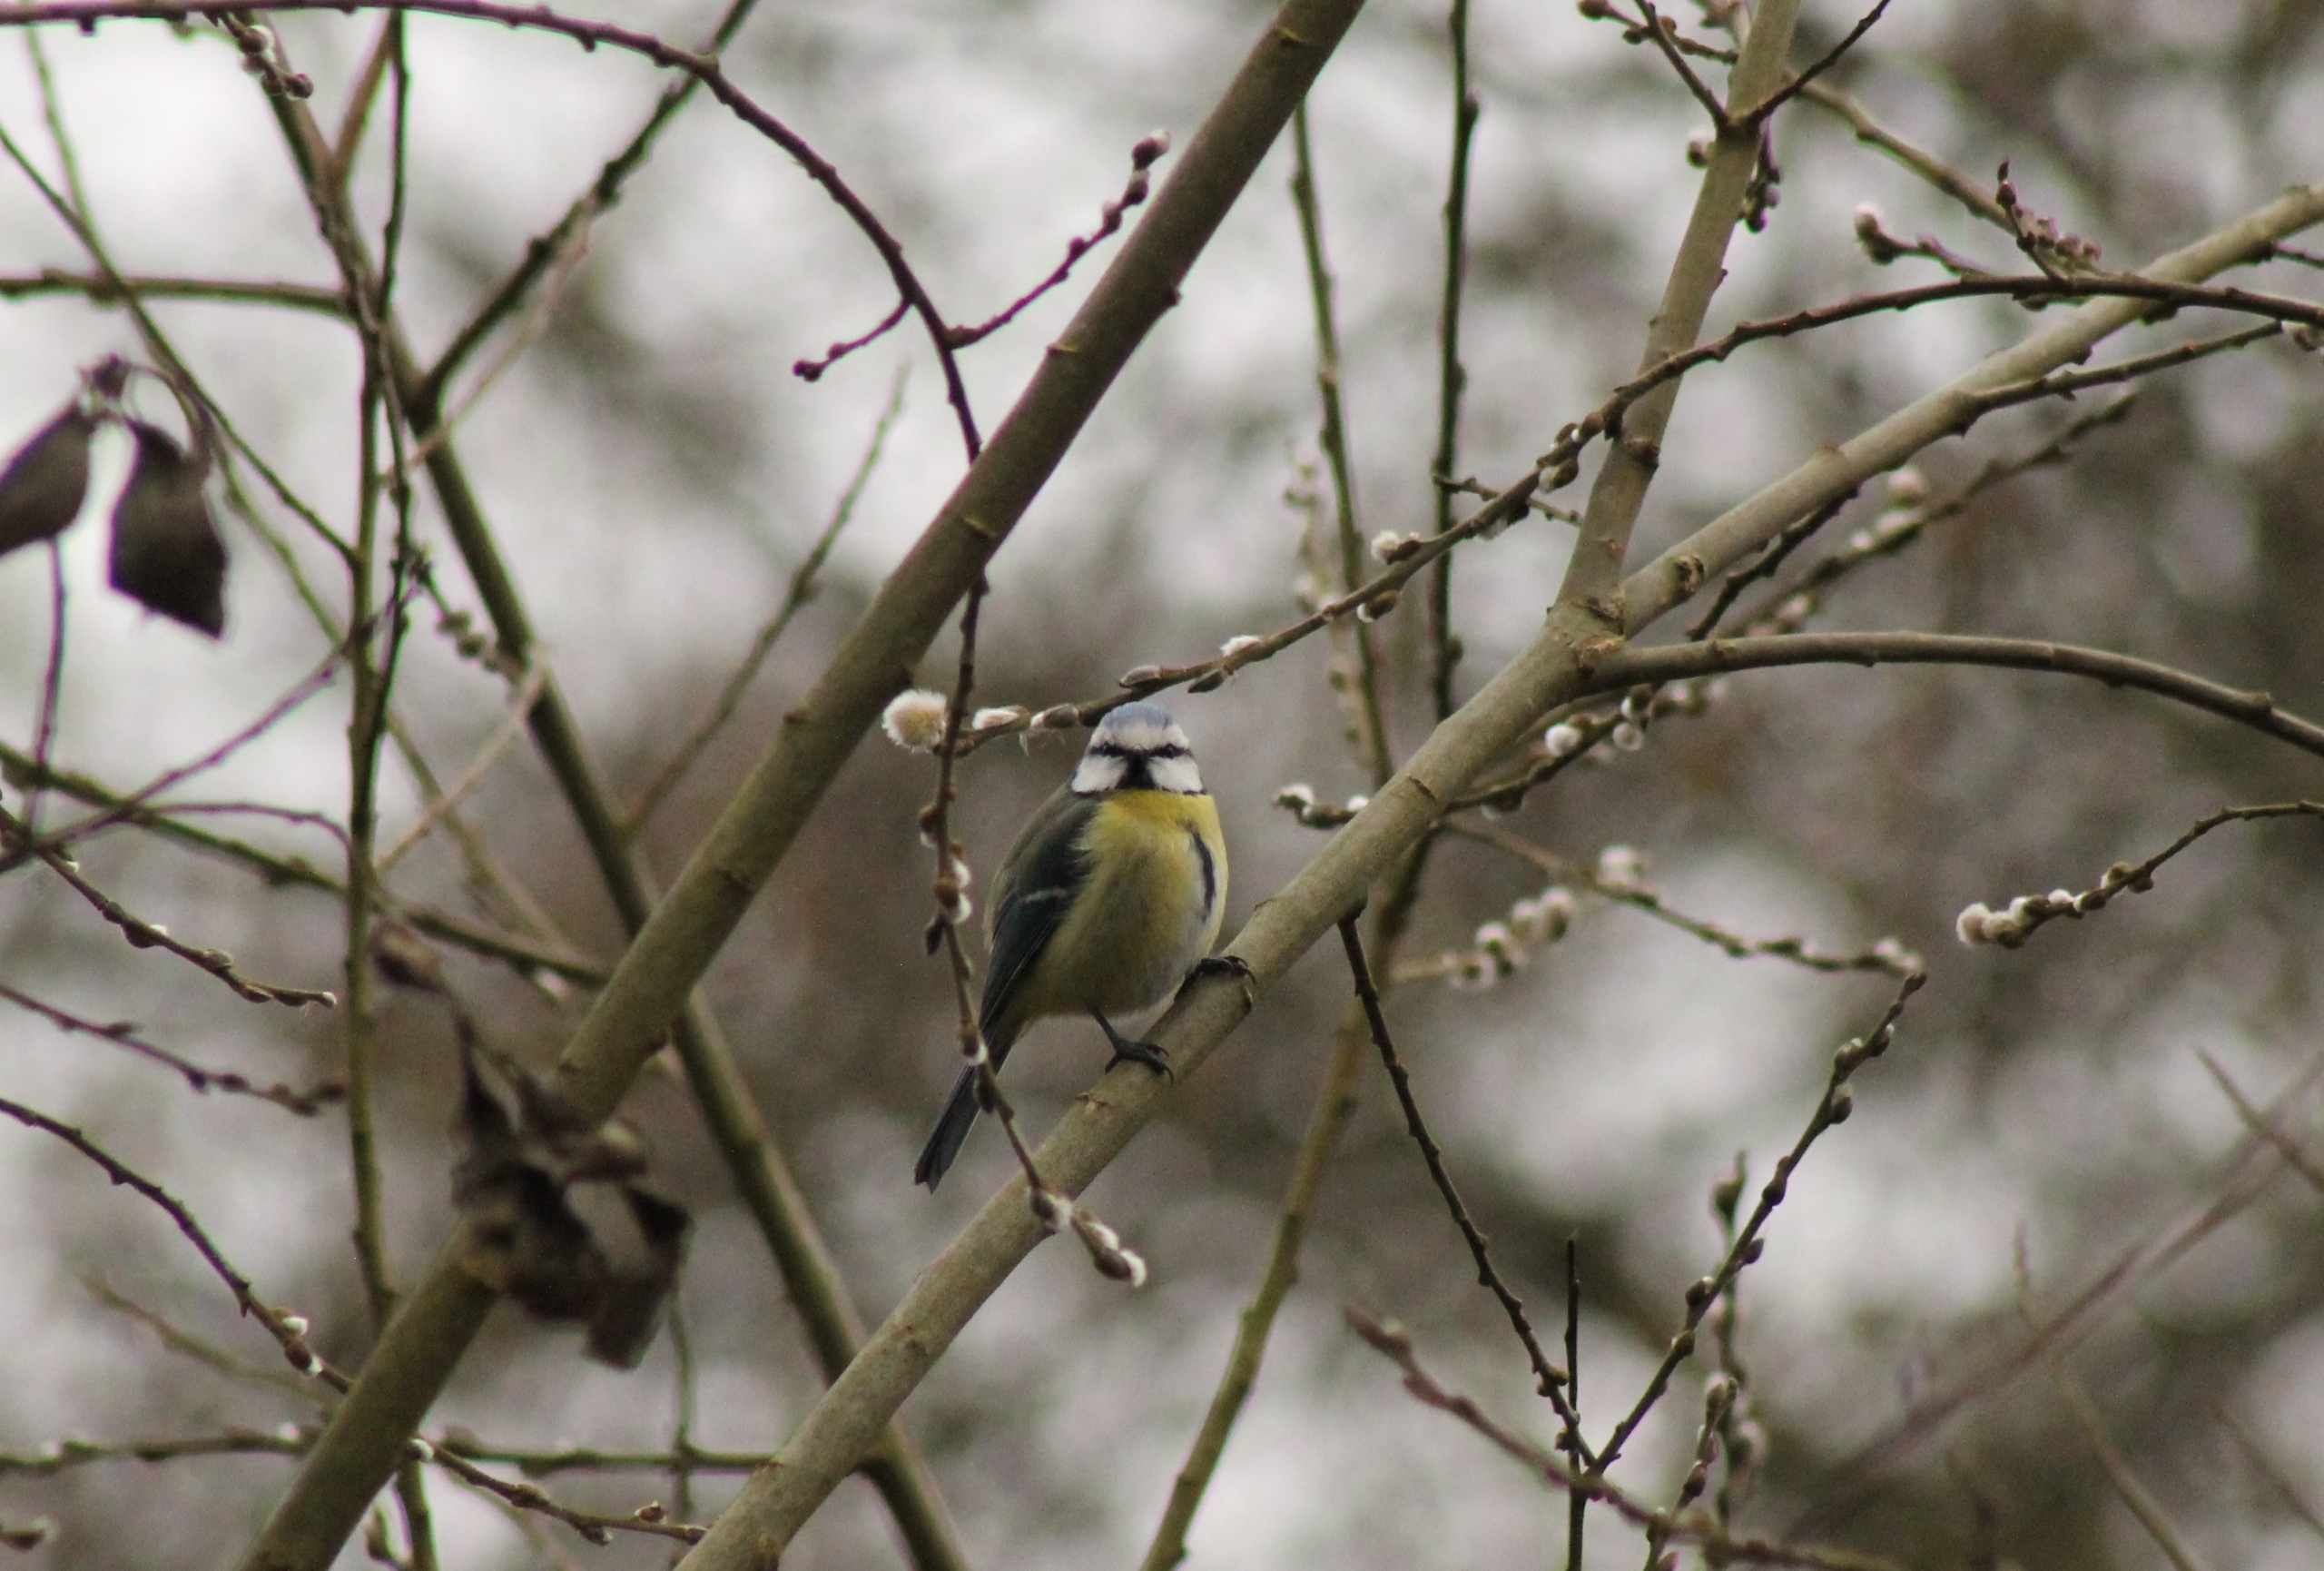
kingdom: Animalia
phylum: Chordata
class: Aves
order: Passeriformes
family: Paridae
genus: Cyanistes
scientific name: Cyanistes caeruleus
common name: Blåmejse
